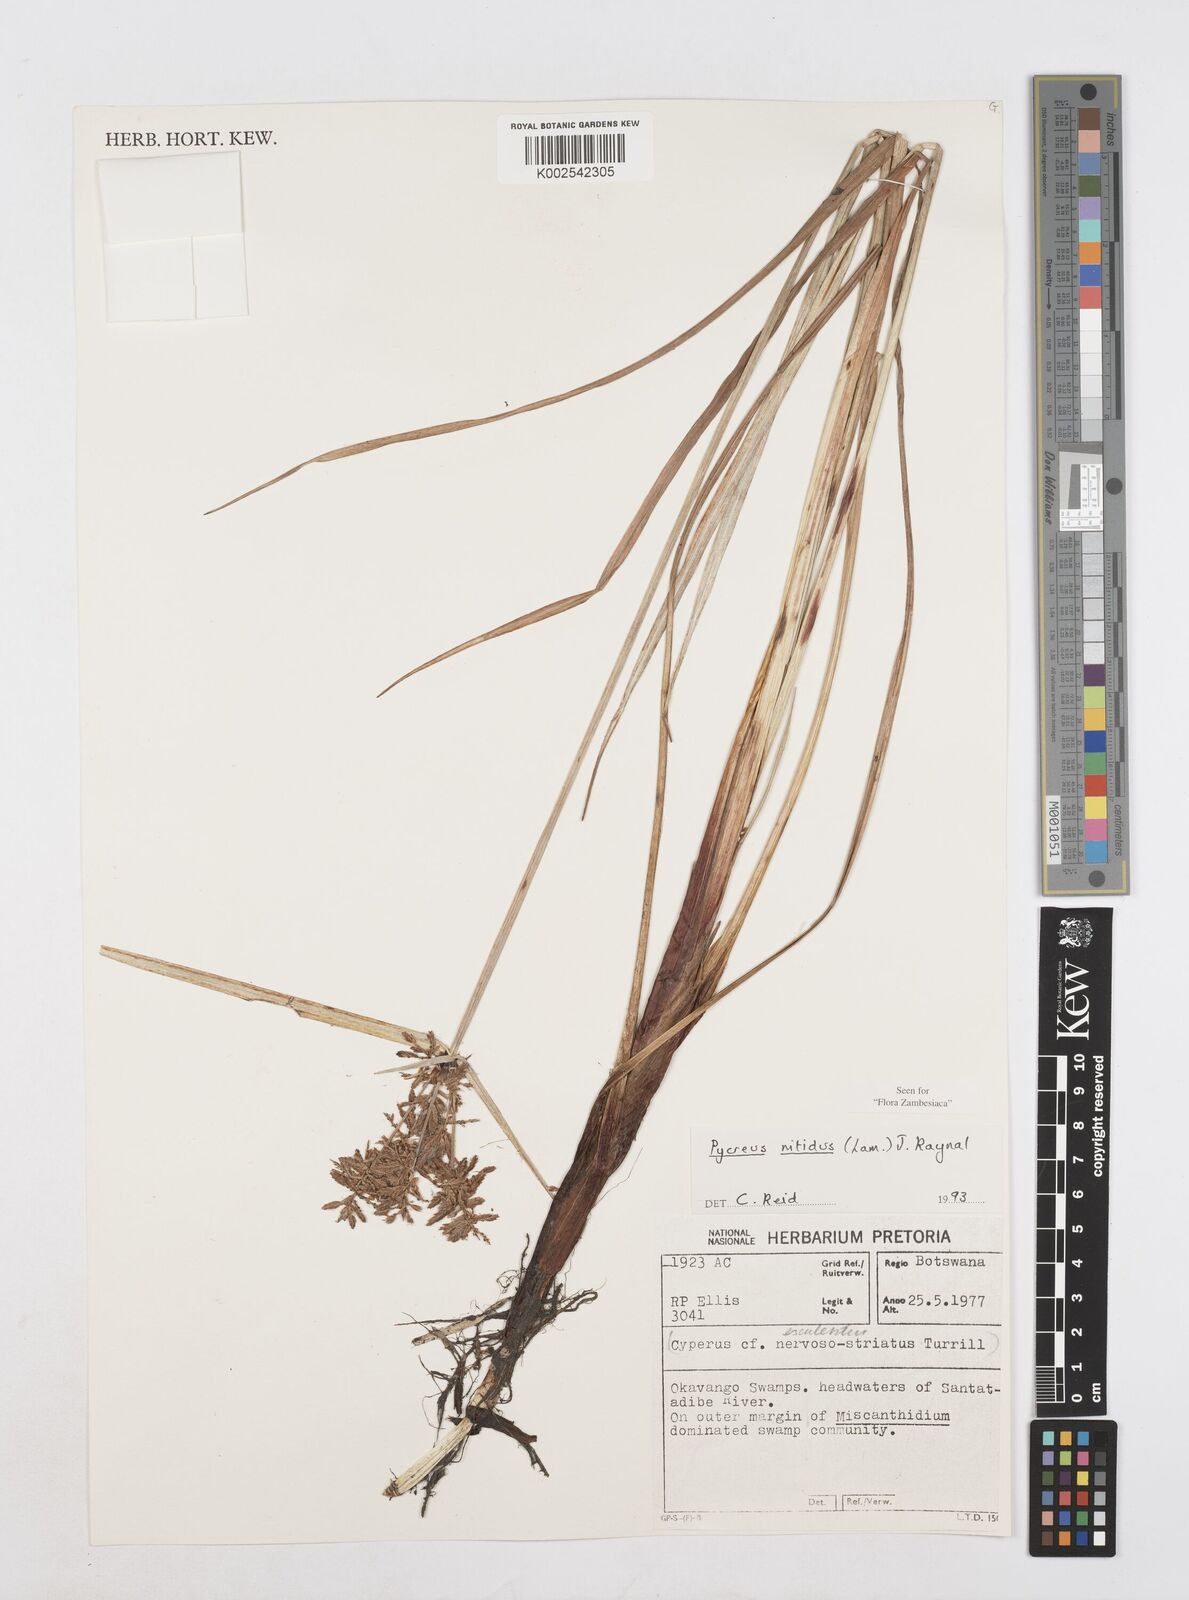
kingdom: Plantae
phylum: Tracheophyta
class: Liliopsida
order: Poales
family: Cyperaceae
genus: Cyperus
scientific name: Cyperus nitidus
